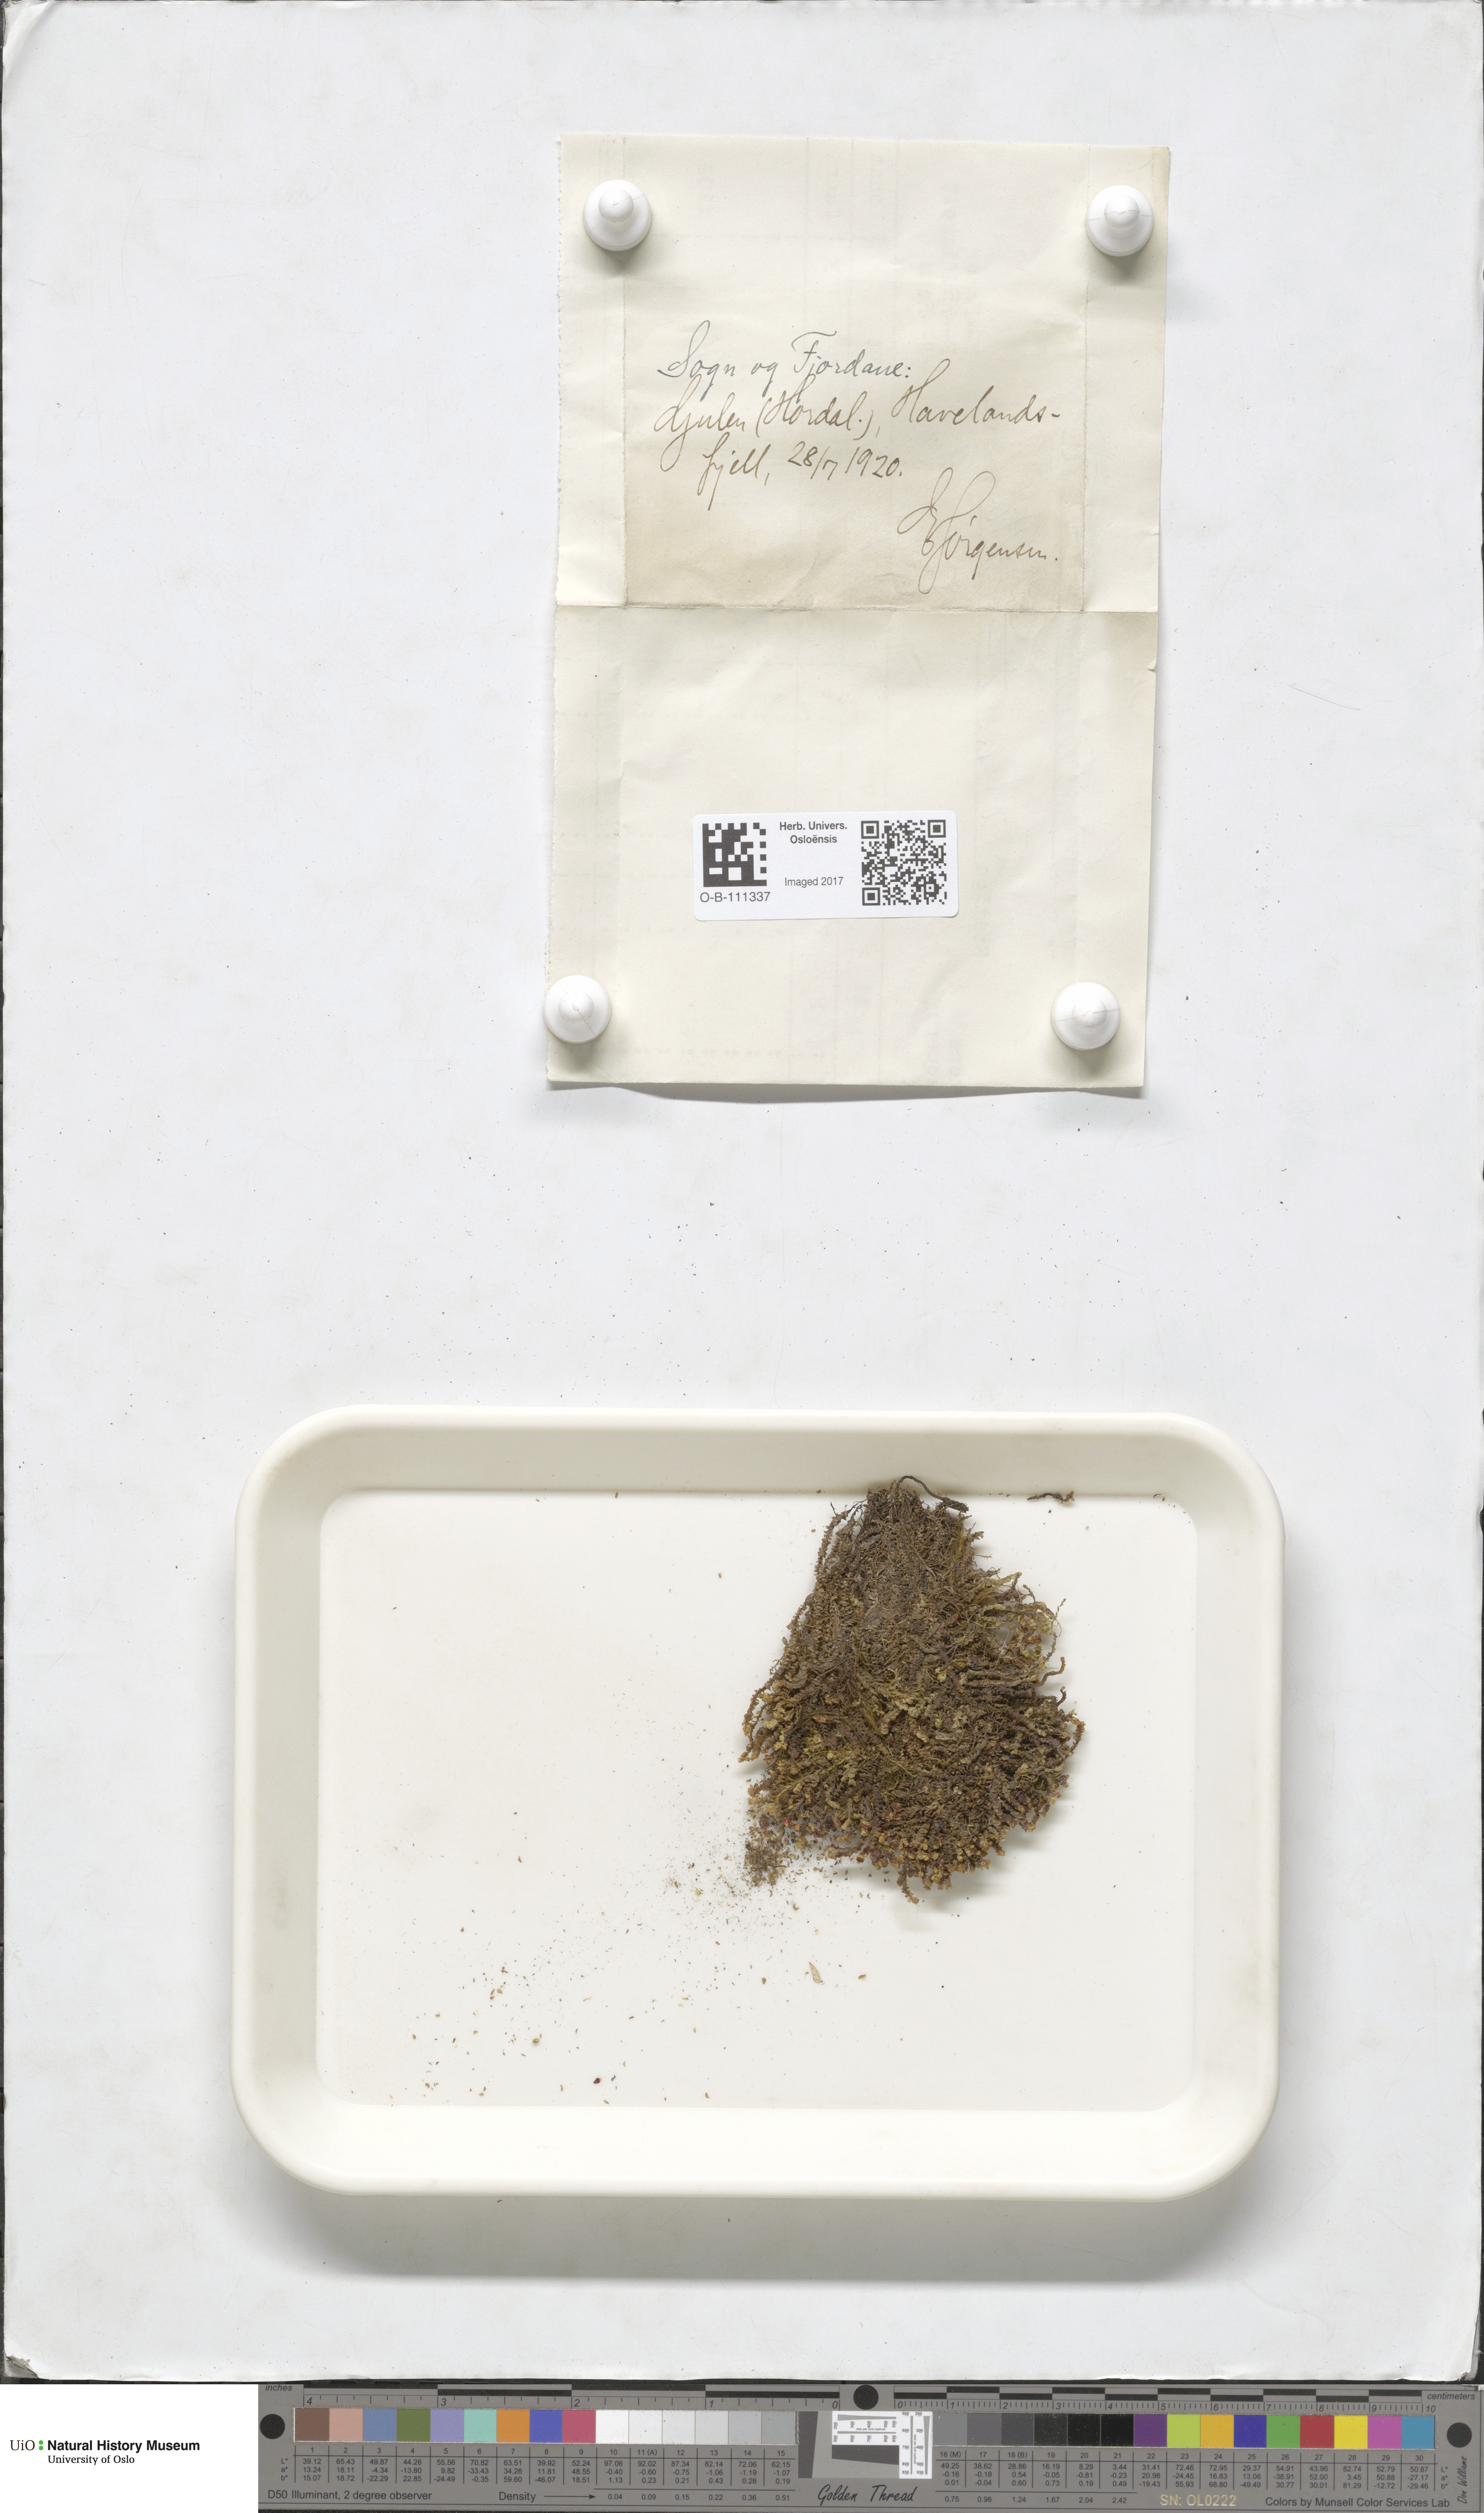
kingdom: Plantae
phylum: Marchantiophyta
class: Jungermanniopsida
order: Jungermanniales
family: Scapaniaceae
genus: Scapania
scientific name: Scapania gracilis
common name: Western earwort
